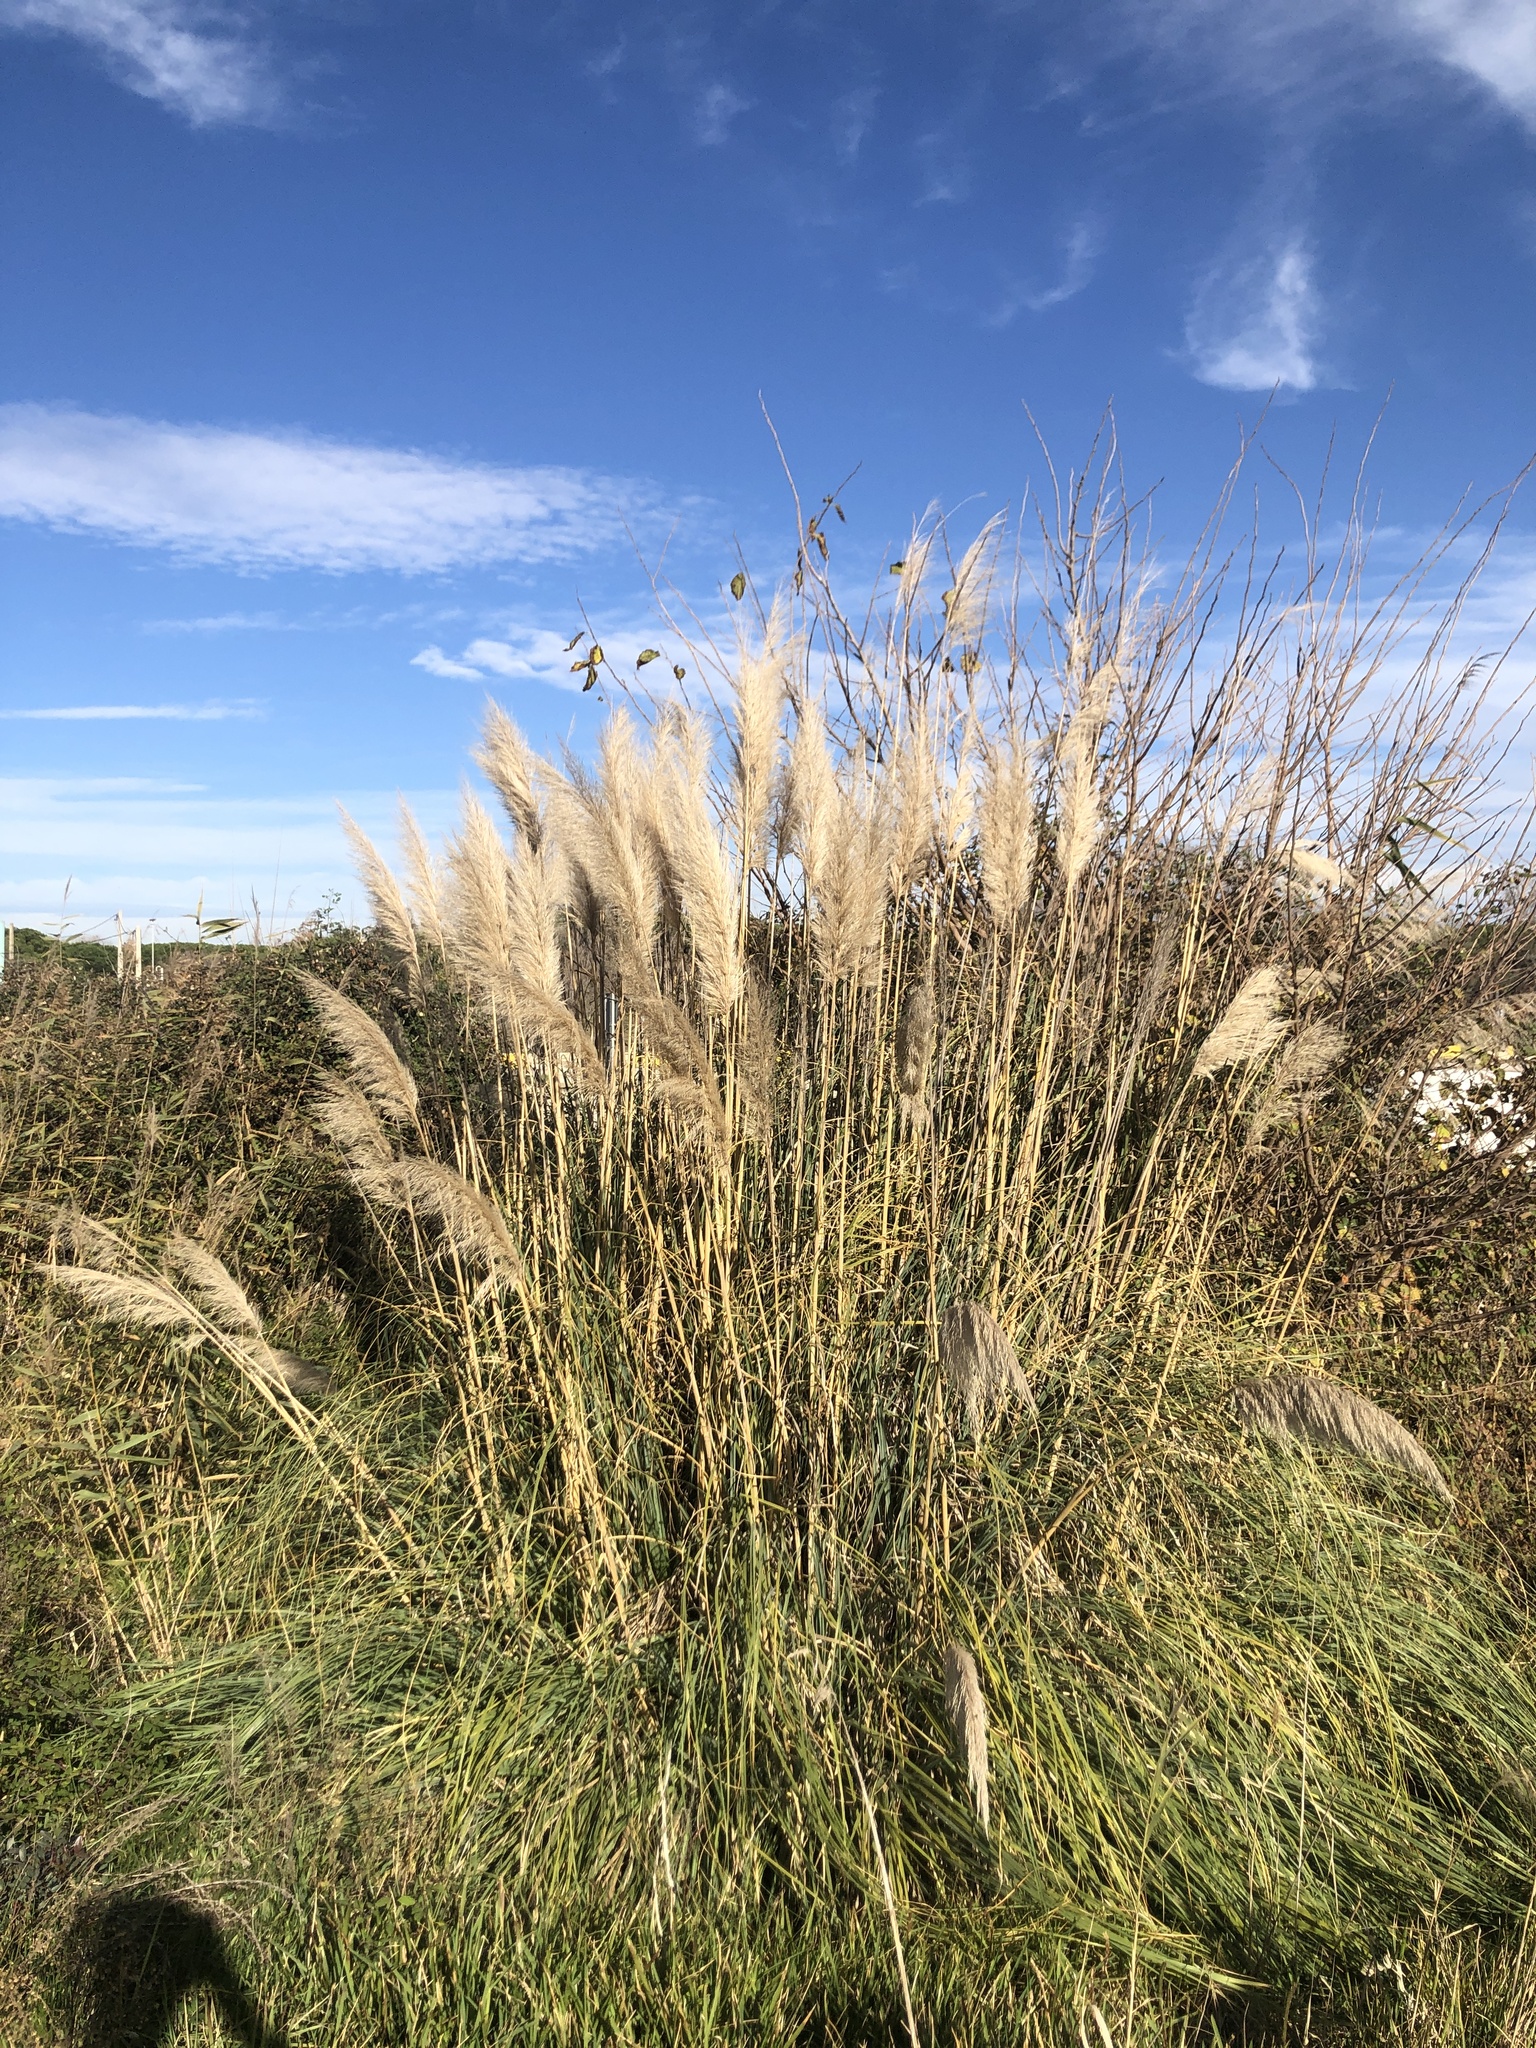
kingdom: Plantae
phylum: Tracheophyta
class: Liliopsida
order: Poales
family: Poaceae
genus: Cortaderia
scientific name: Cortaderia selloana
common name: Uruguayan pampas grass
